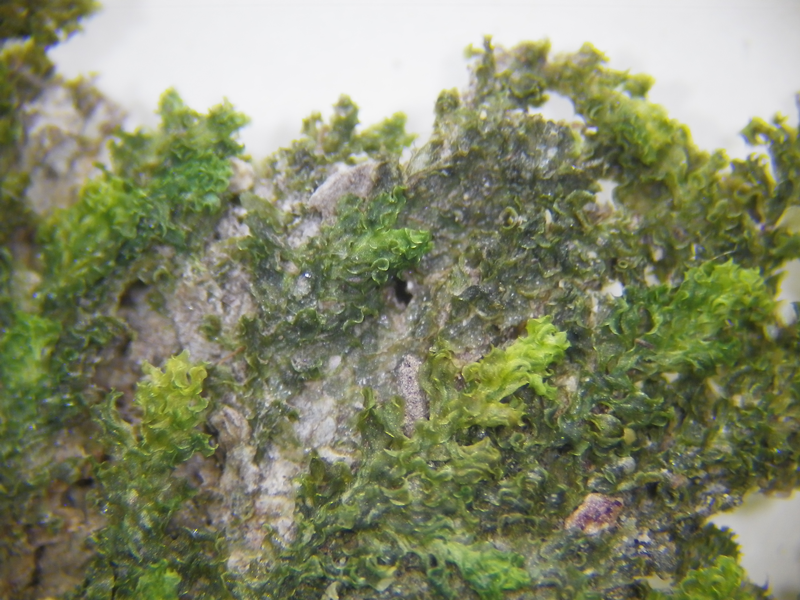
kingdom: Plantae
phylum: Bryophyta
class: Bryopsida
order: Hookeriales
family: Daltoniaceae
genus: Distichophyllum
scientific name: Distichophyllum nigricaule
